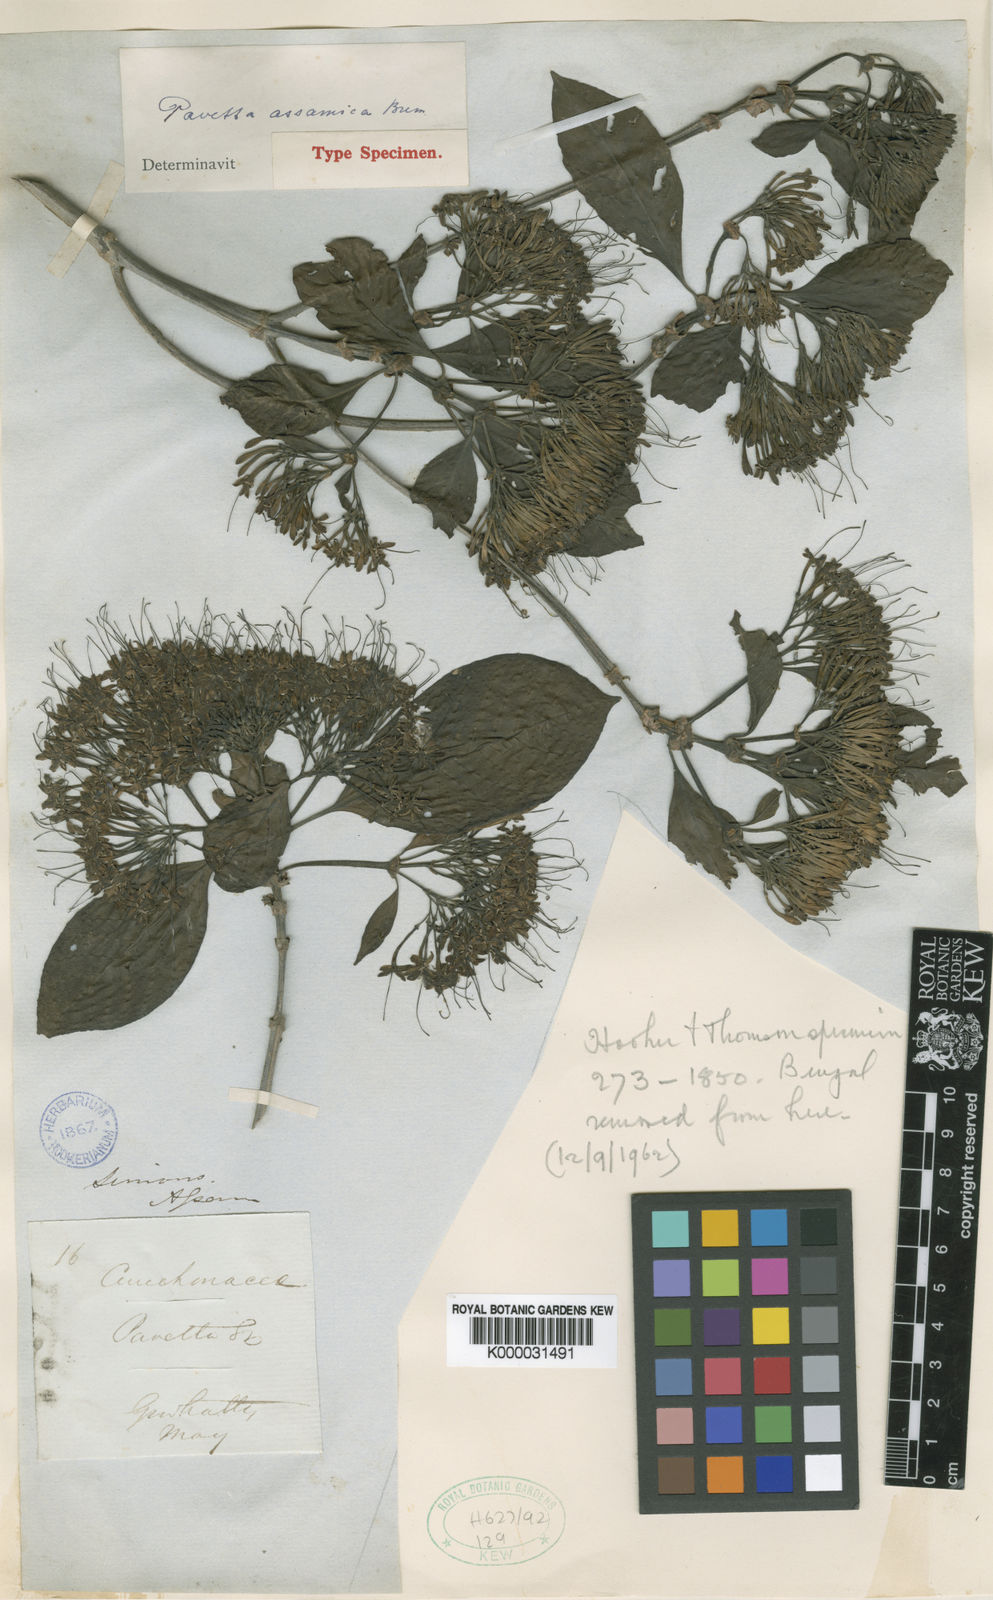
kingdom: Plantae
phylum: Tracheophyta
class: Magnoliopsida
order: Gentianales
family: Rubiaceae
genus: Pavetta
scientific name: Pavetta tomentosa
